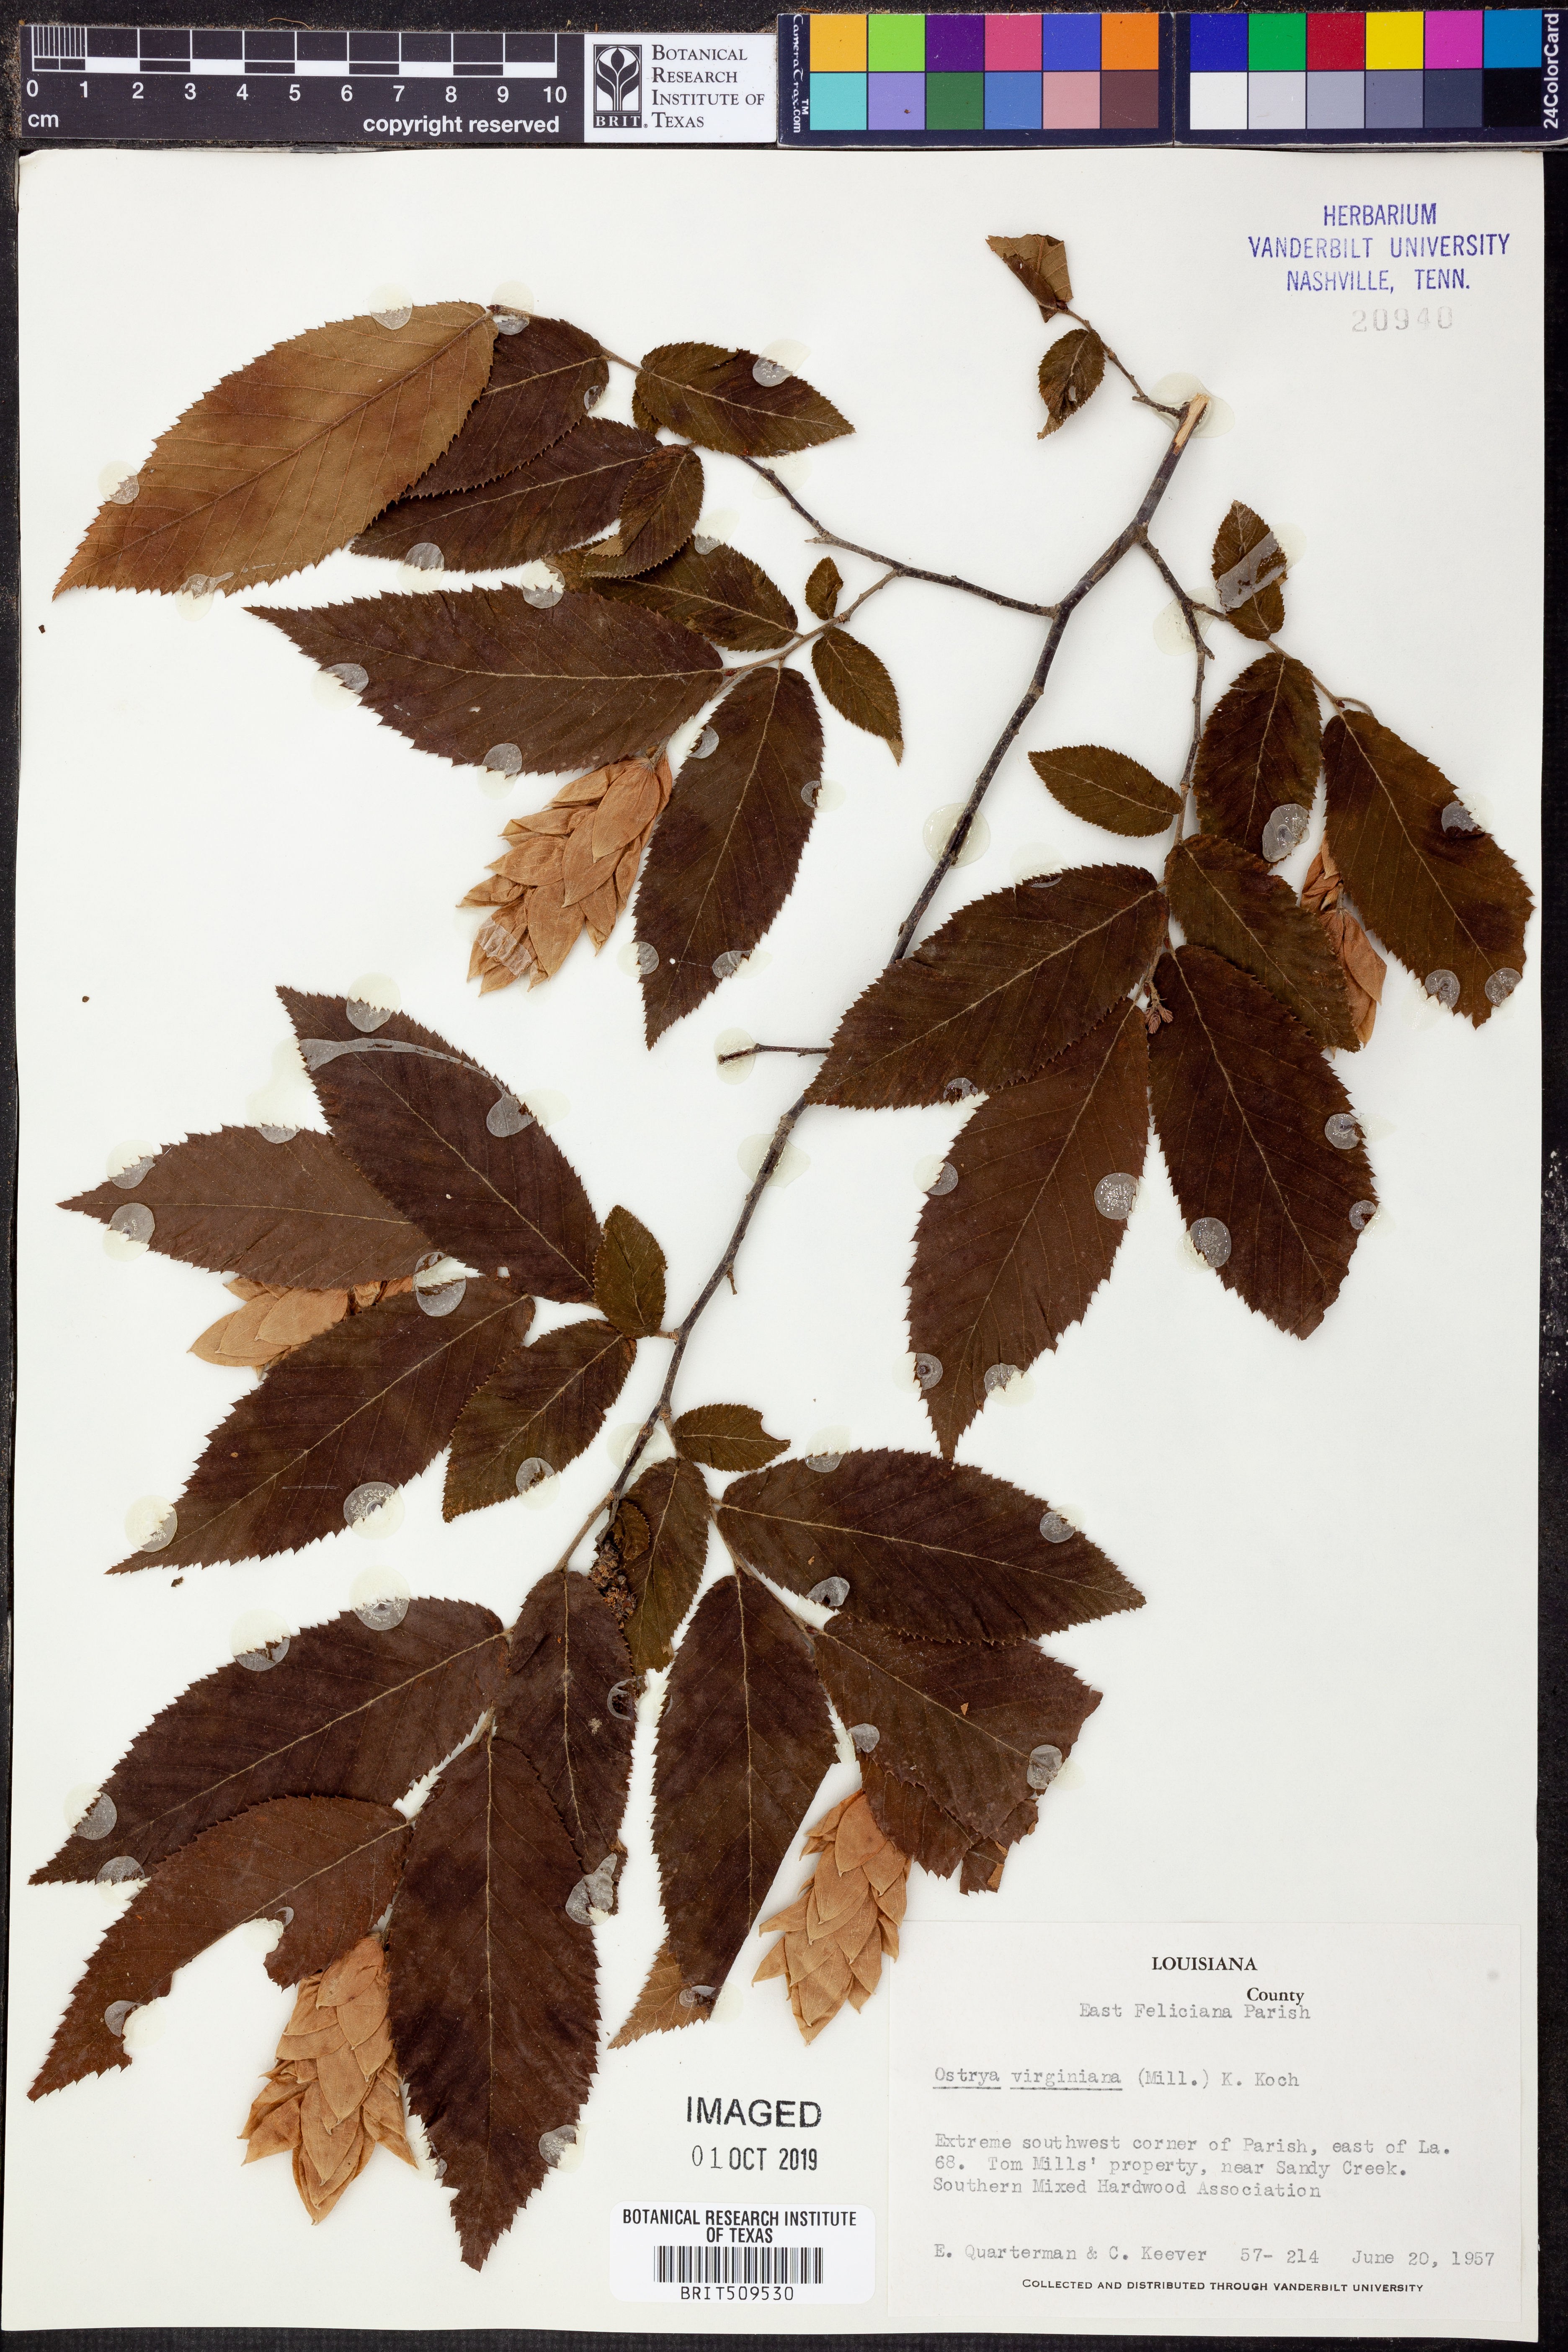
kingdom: Plantae
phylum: Tracheophyta
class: Magnoliopsida
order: Fagales
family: Betulaceae
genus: Ostrya
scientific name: Ostrya virginiana
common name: Ironwood
